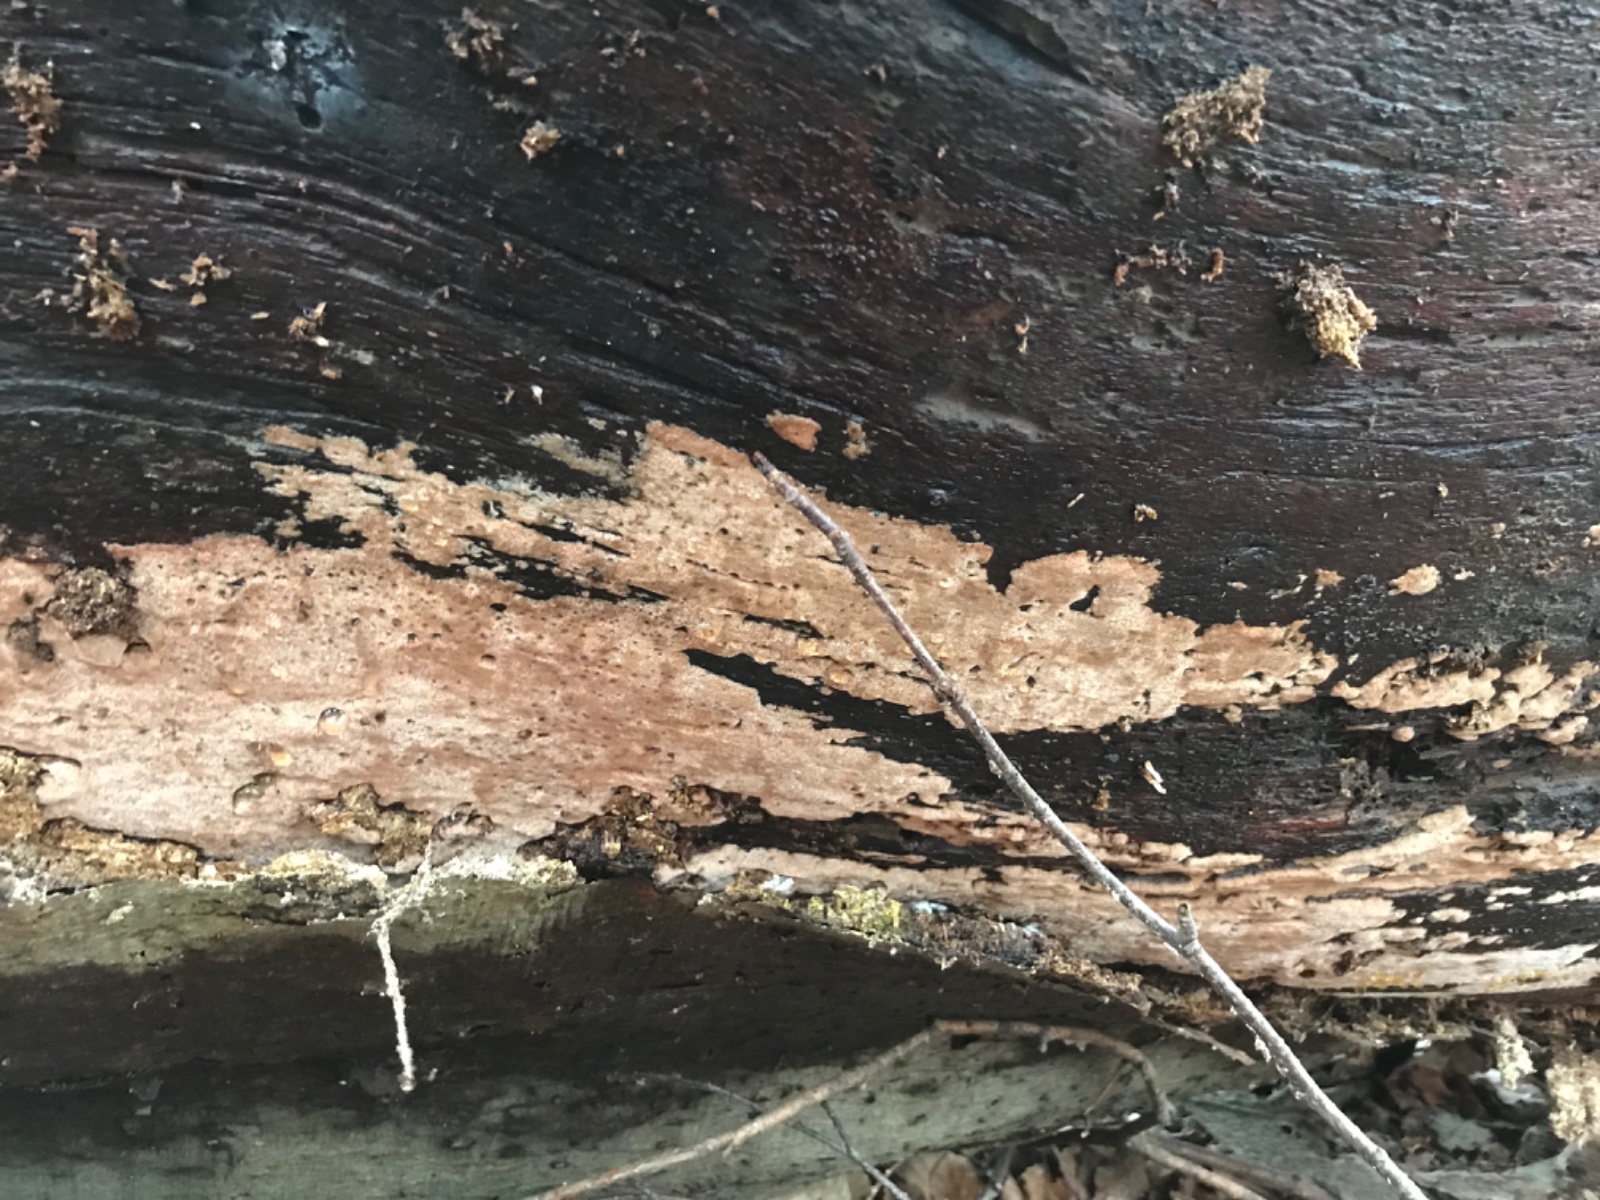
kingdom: Fungi
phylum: Basidiomycota
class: Agaricomycetes
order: Polyporales
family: Meruliaceae
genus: Mycoacia
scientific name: Mycoacia gilvescens
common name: rosa pastelporesvamp
